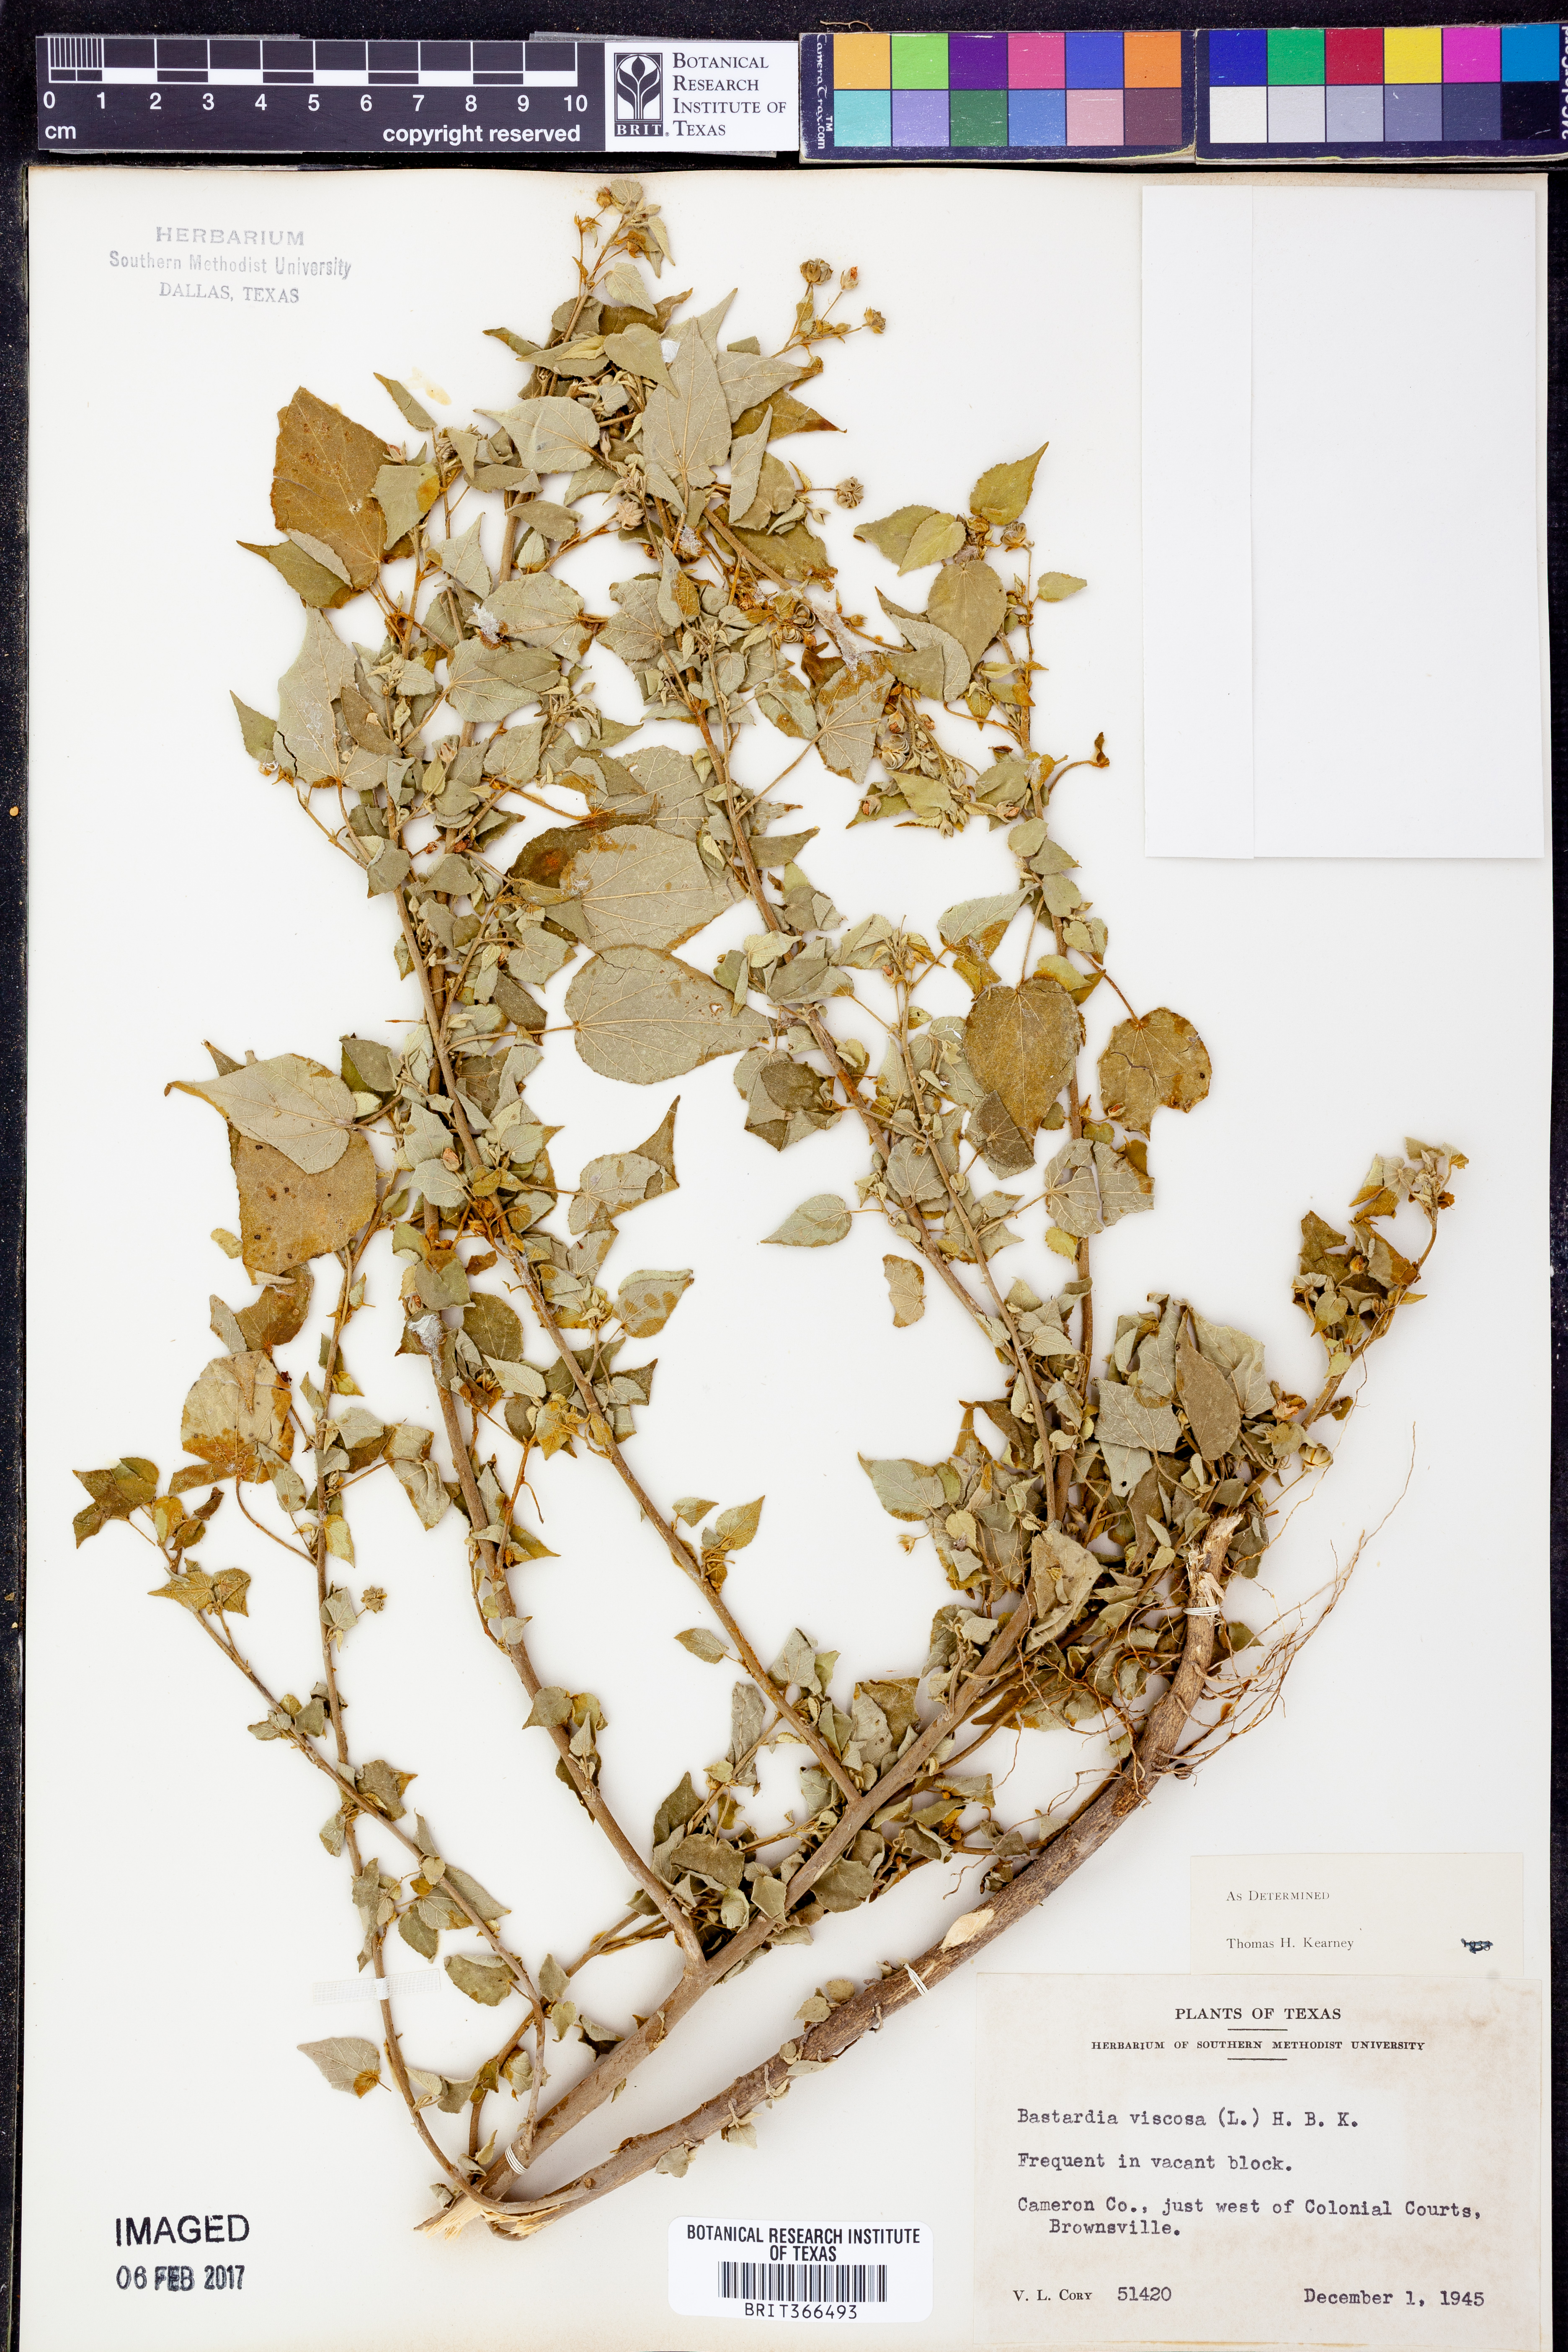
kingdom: Plantae
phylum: Tracheophyta
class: Magnoliopsida
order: Malvales
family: Malvaceae
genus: Abutilon
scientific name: Abutilon viscosum
